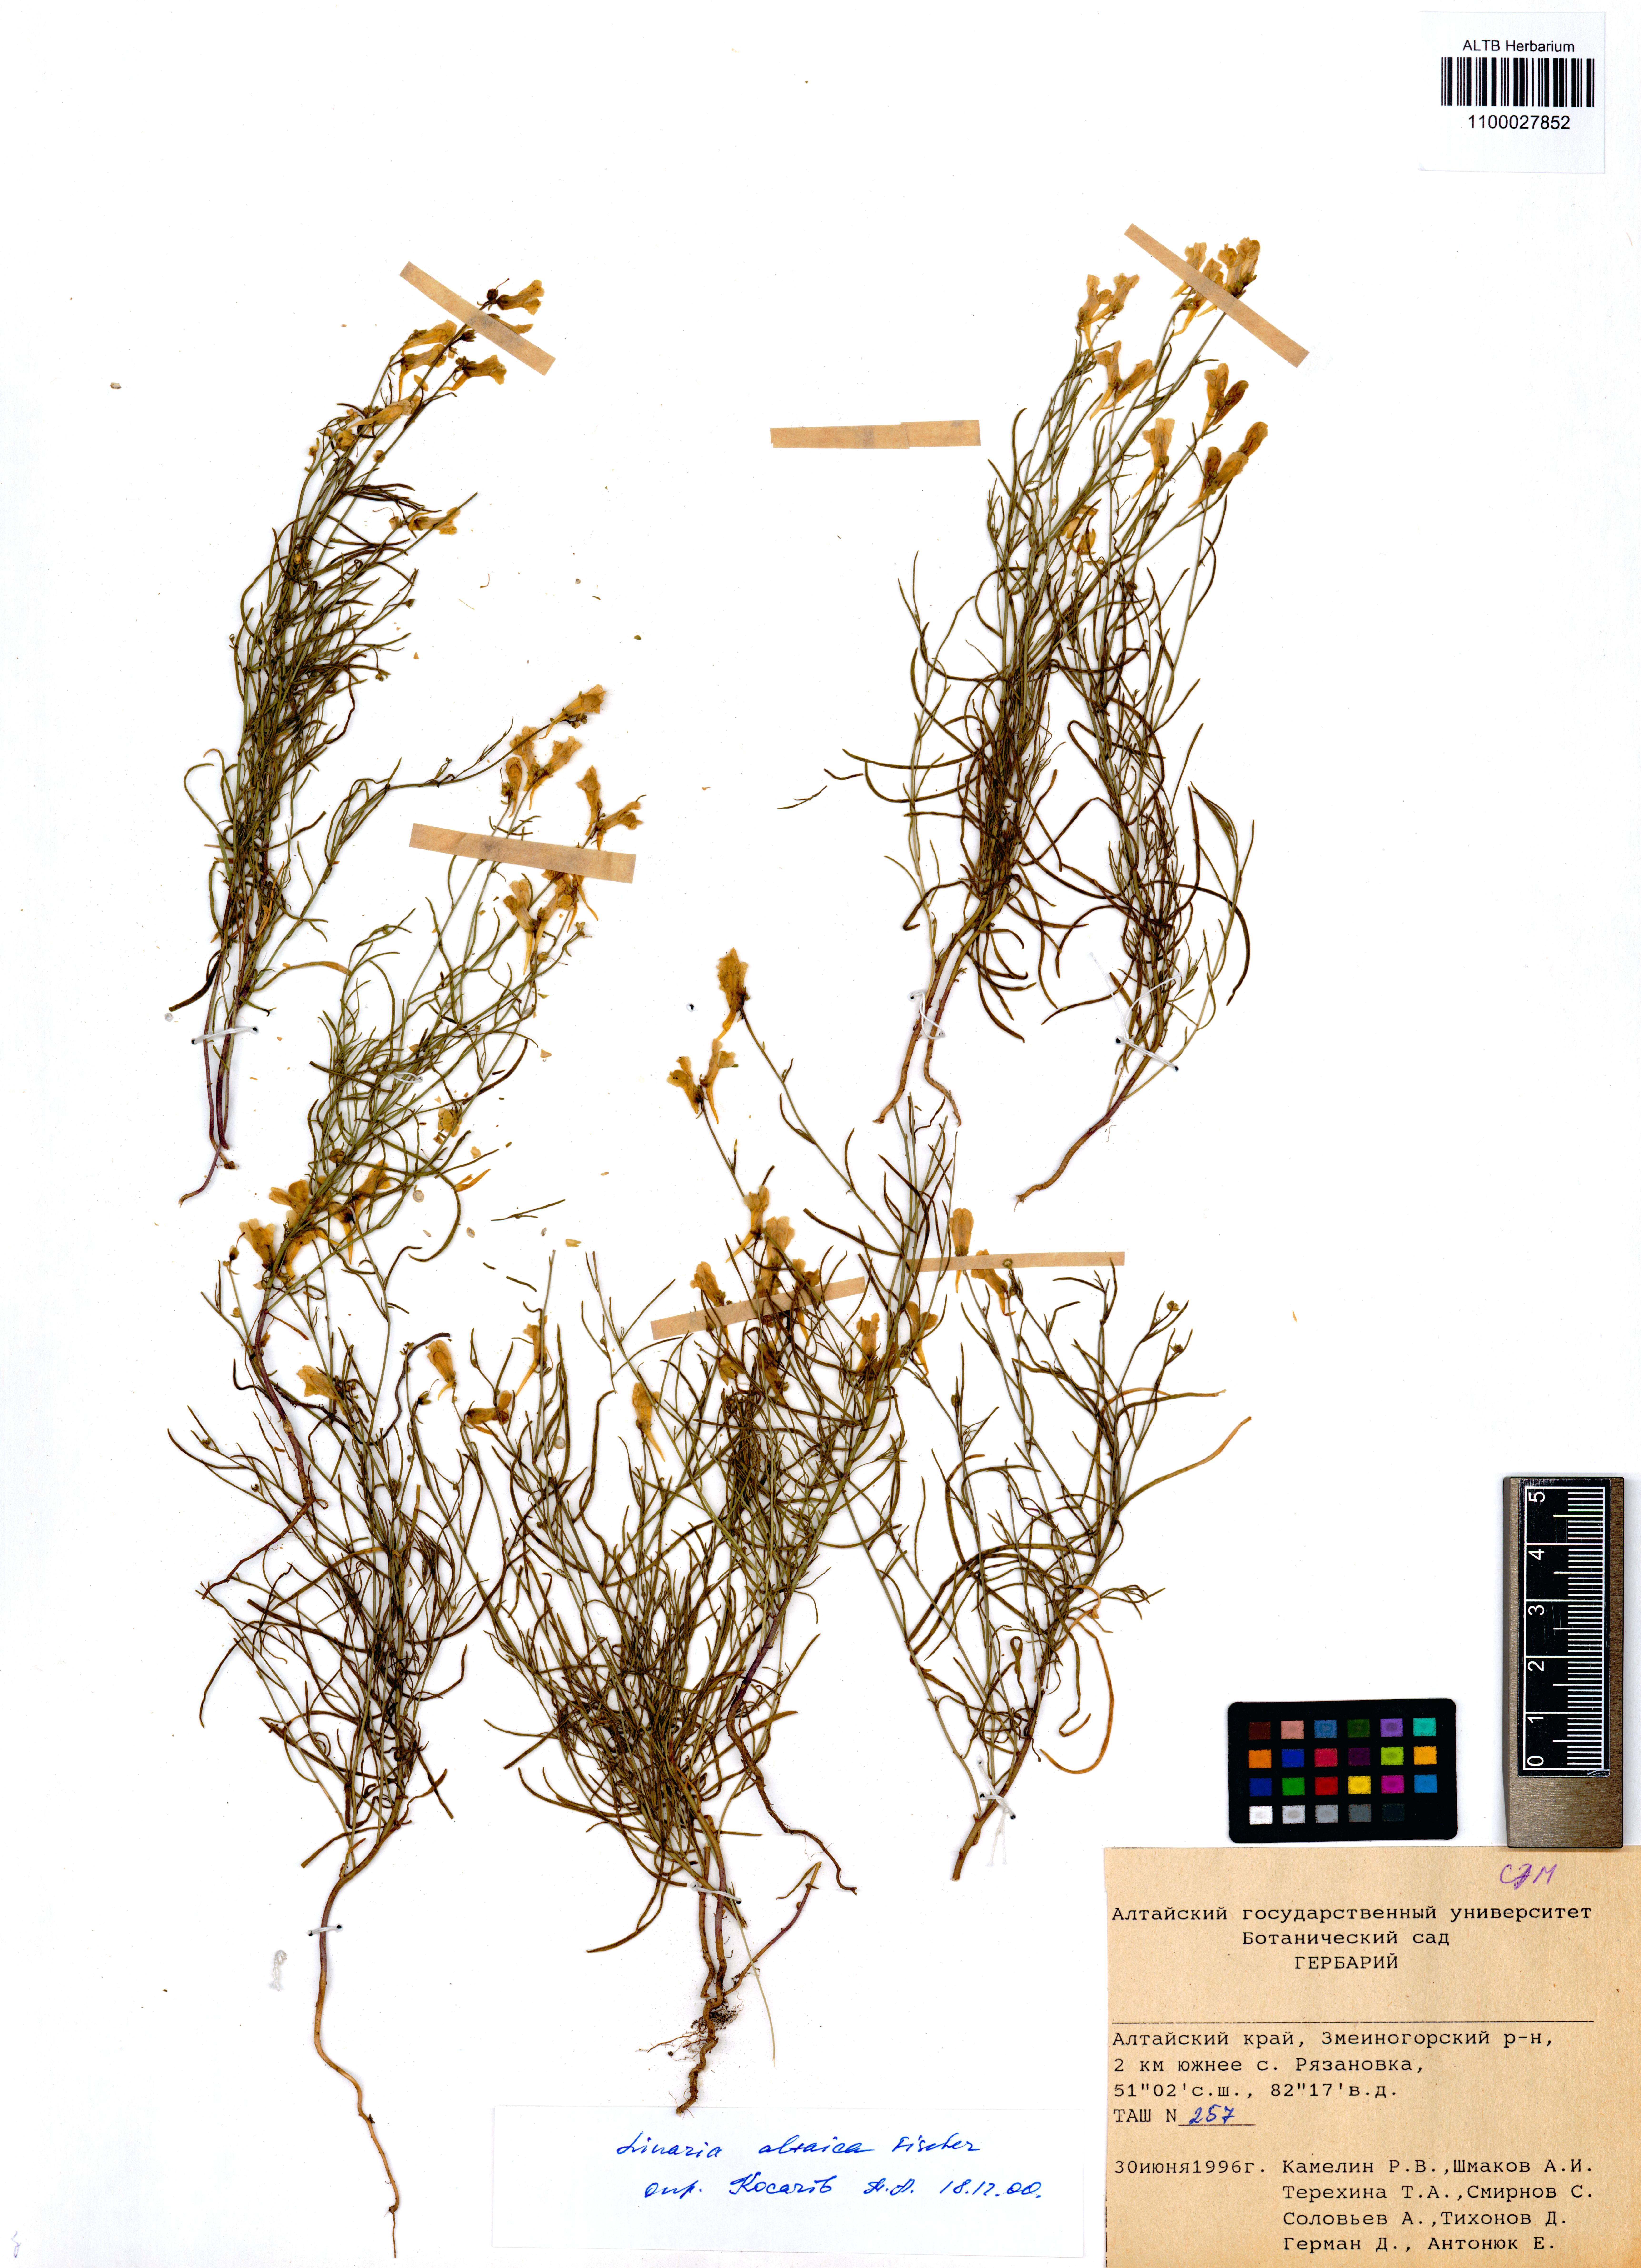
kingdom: Plantae
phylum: Tracheophyta
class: Magnoliopsida
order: Lamiales
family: Plantaginaceae
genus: Linaria
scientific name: Linaria altaica
